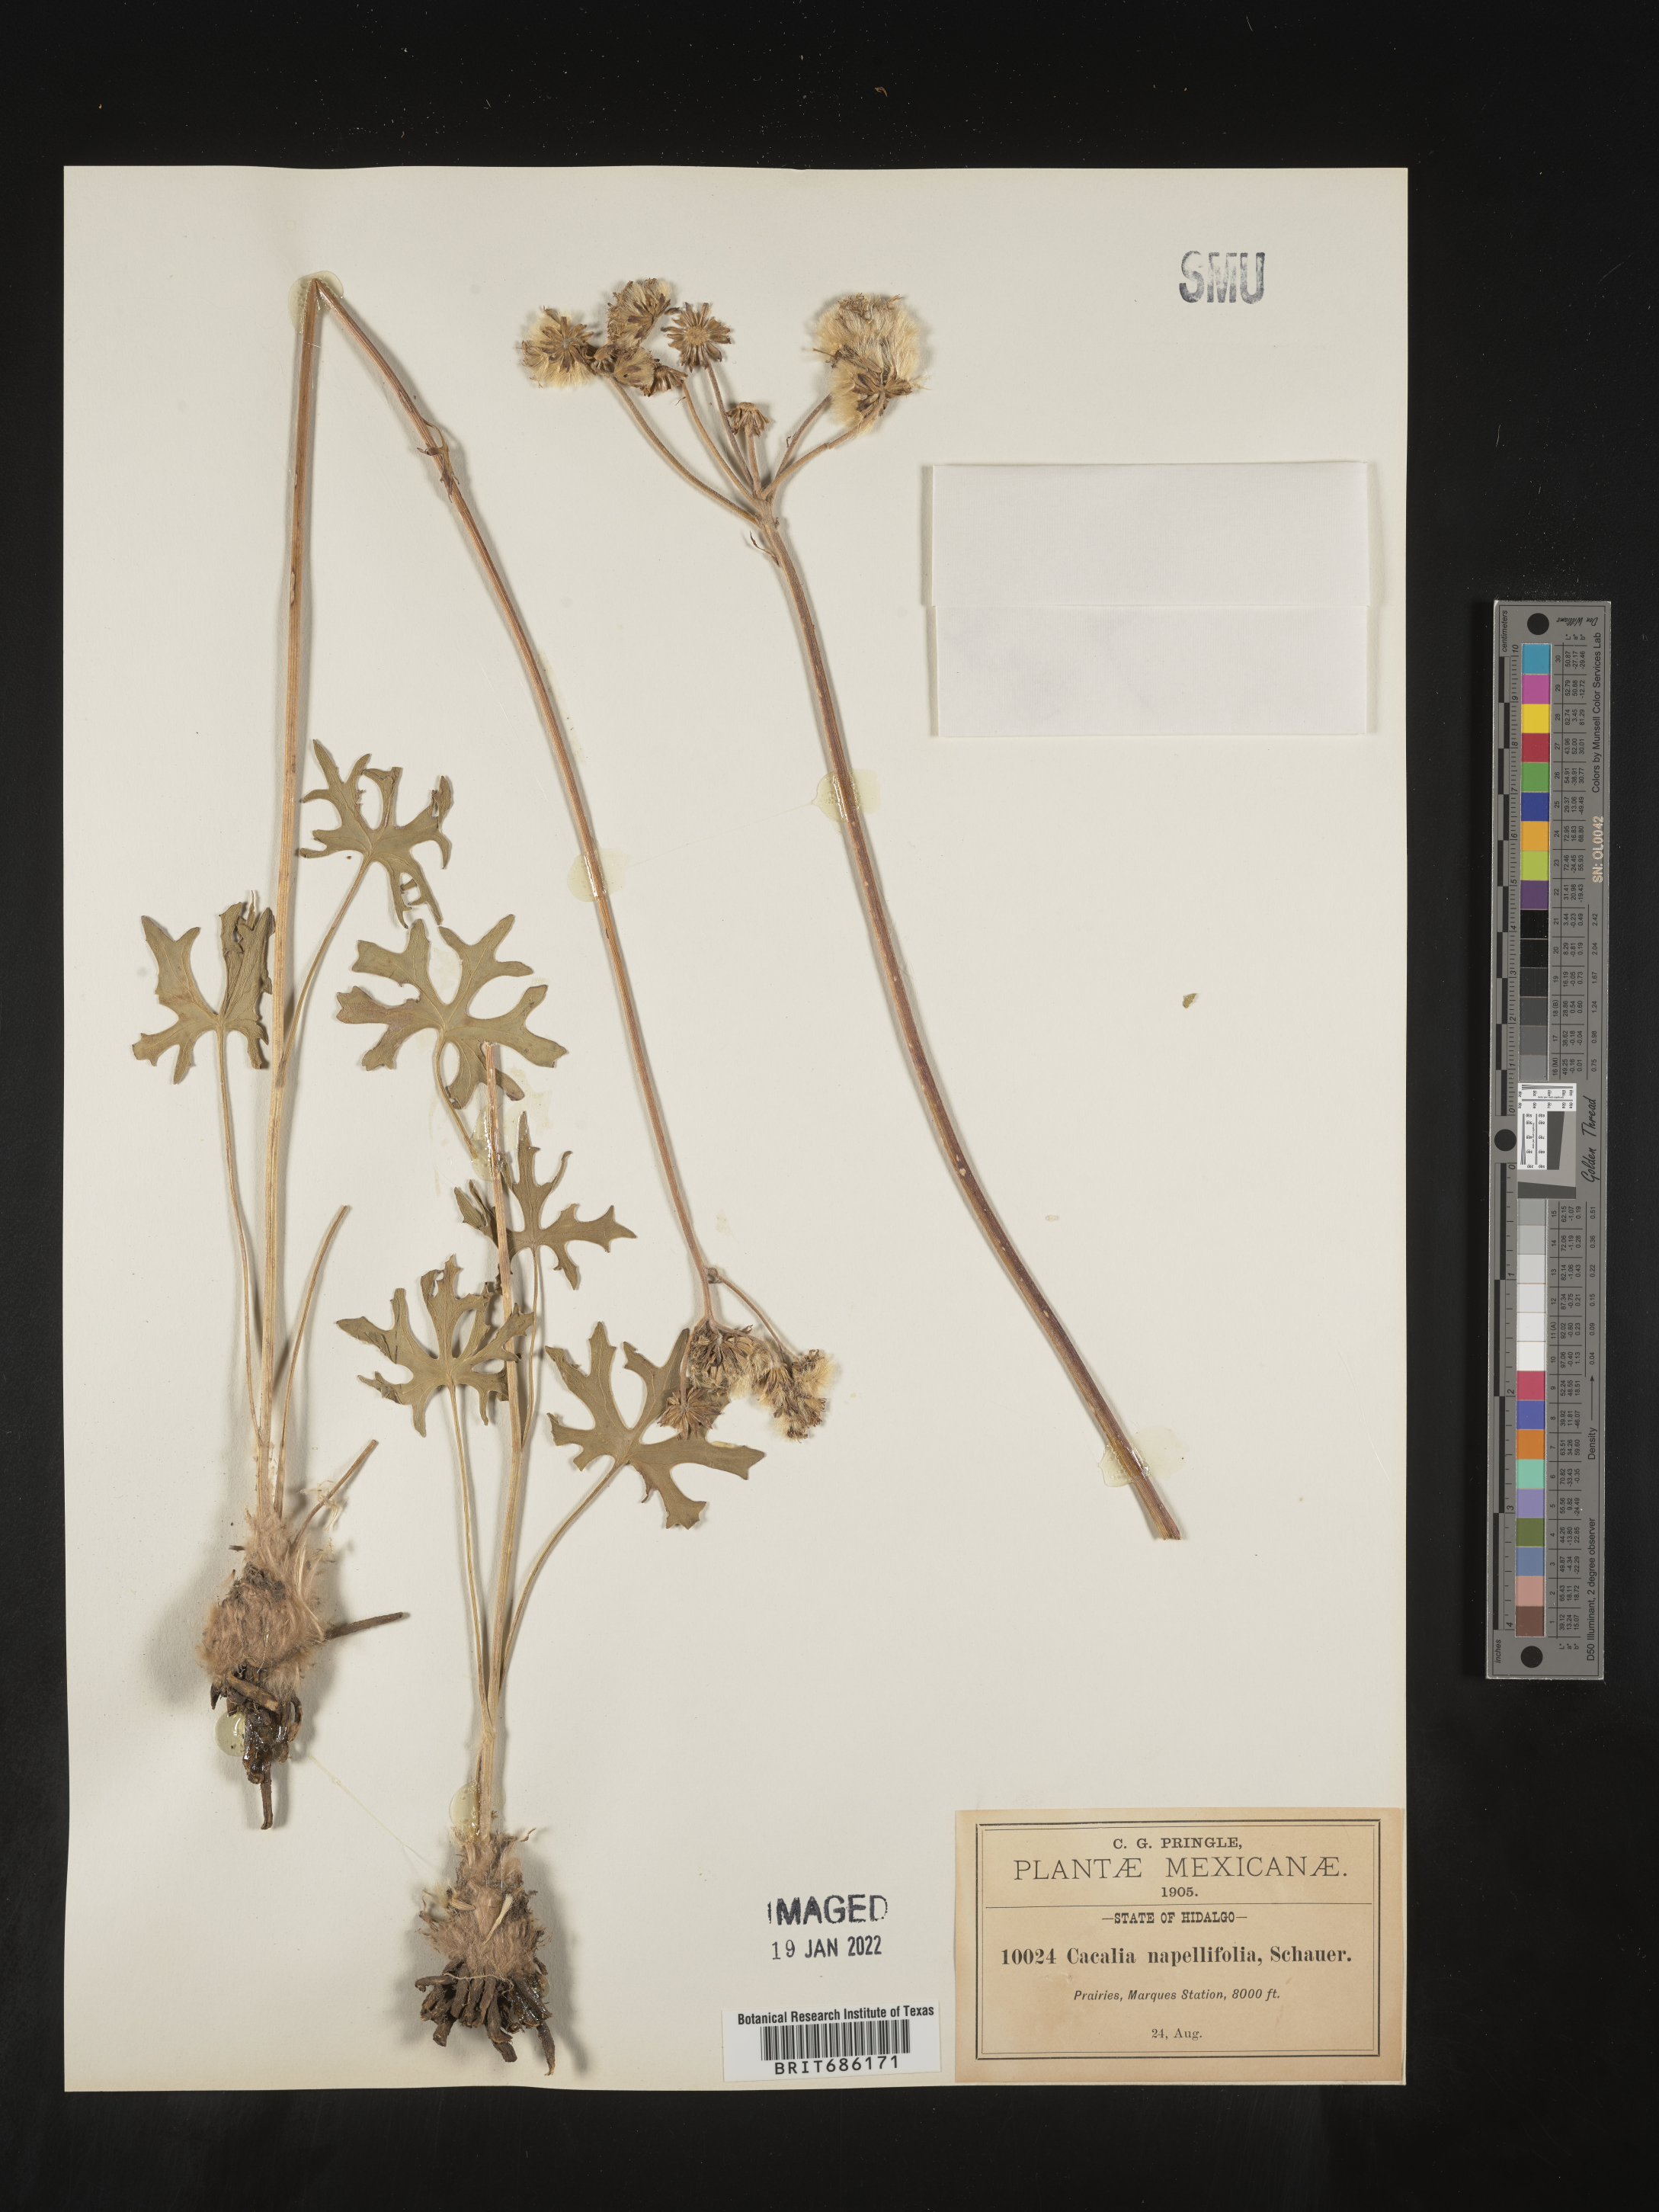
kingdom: Plantae
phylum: Tracheophyta
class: Magnoliopsida
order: Asterales
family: Asteraceae
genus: Cacalia
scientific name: Cacalia
